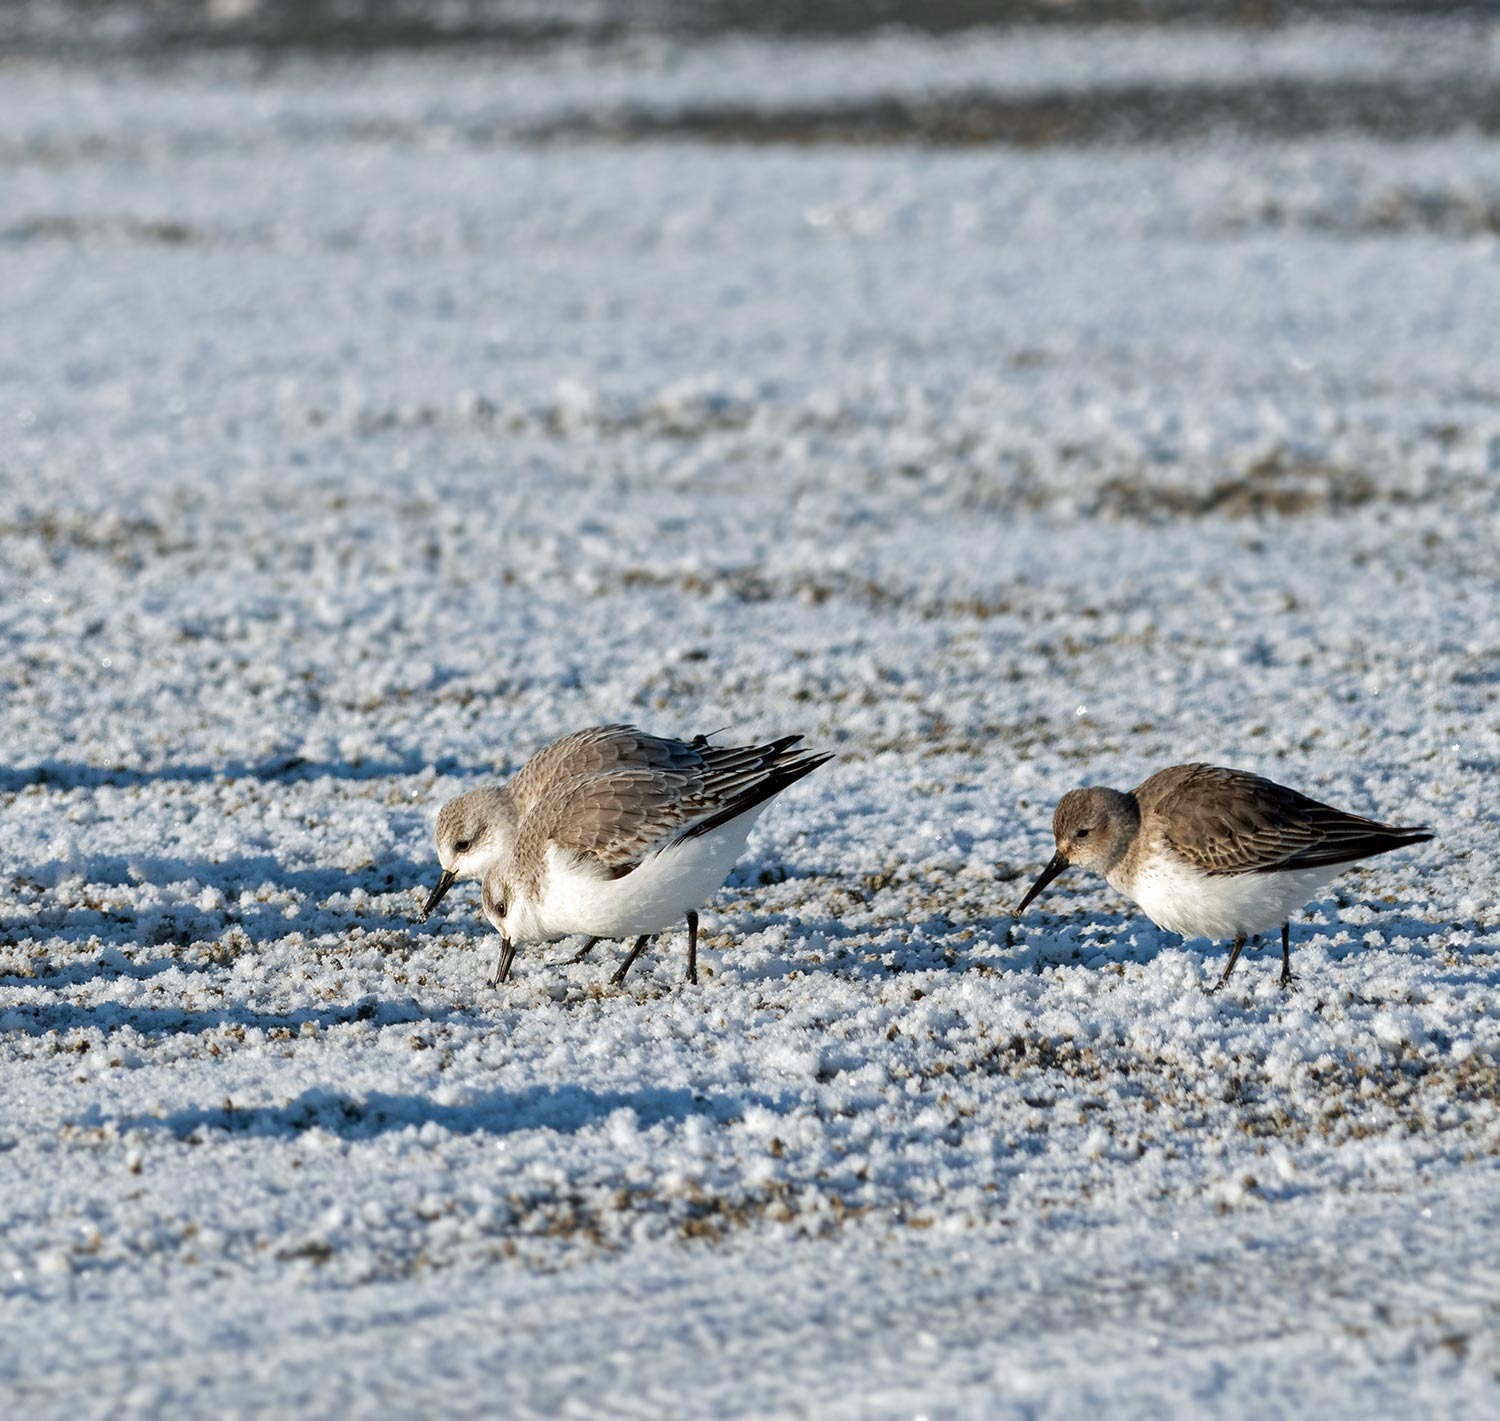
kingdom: Animalia
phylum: Chordata
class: Aves
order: Charadriiformes
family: Scolopacidae
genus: Calidris
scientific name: Calidris alba
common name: Sandløber
